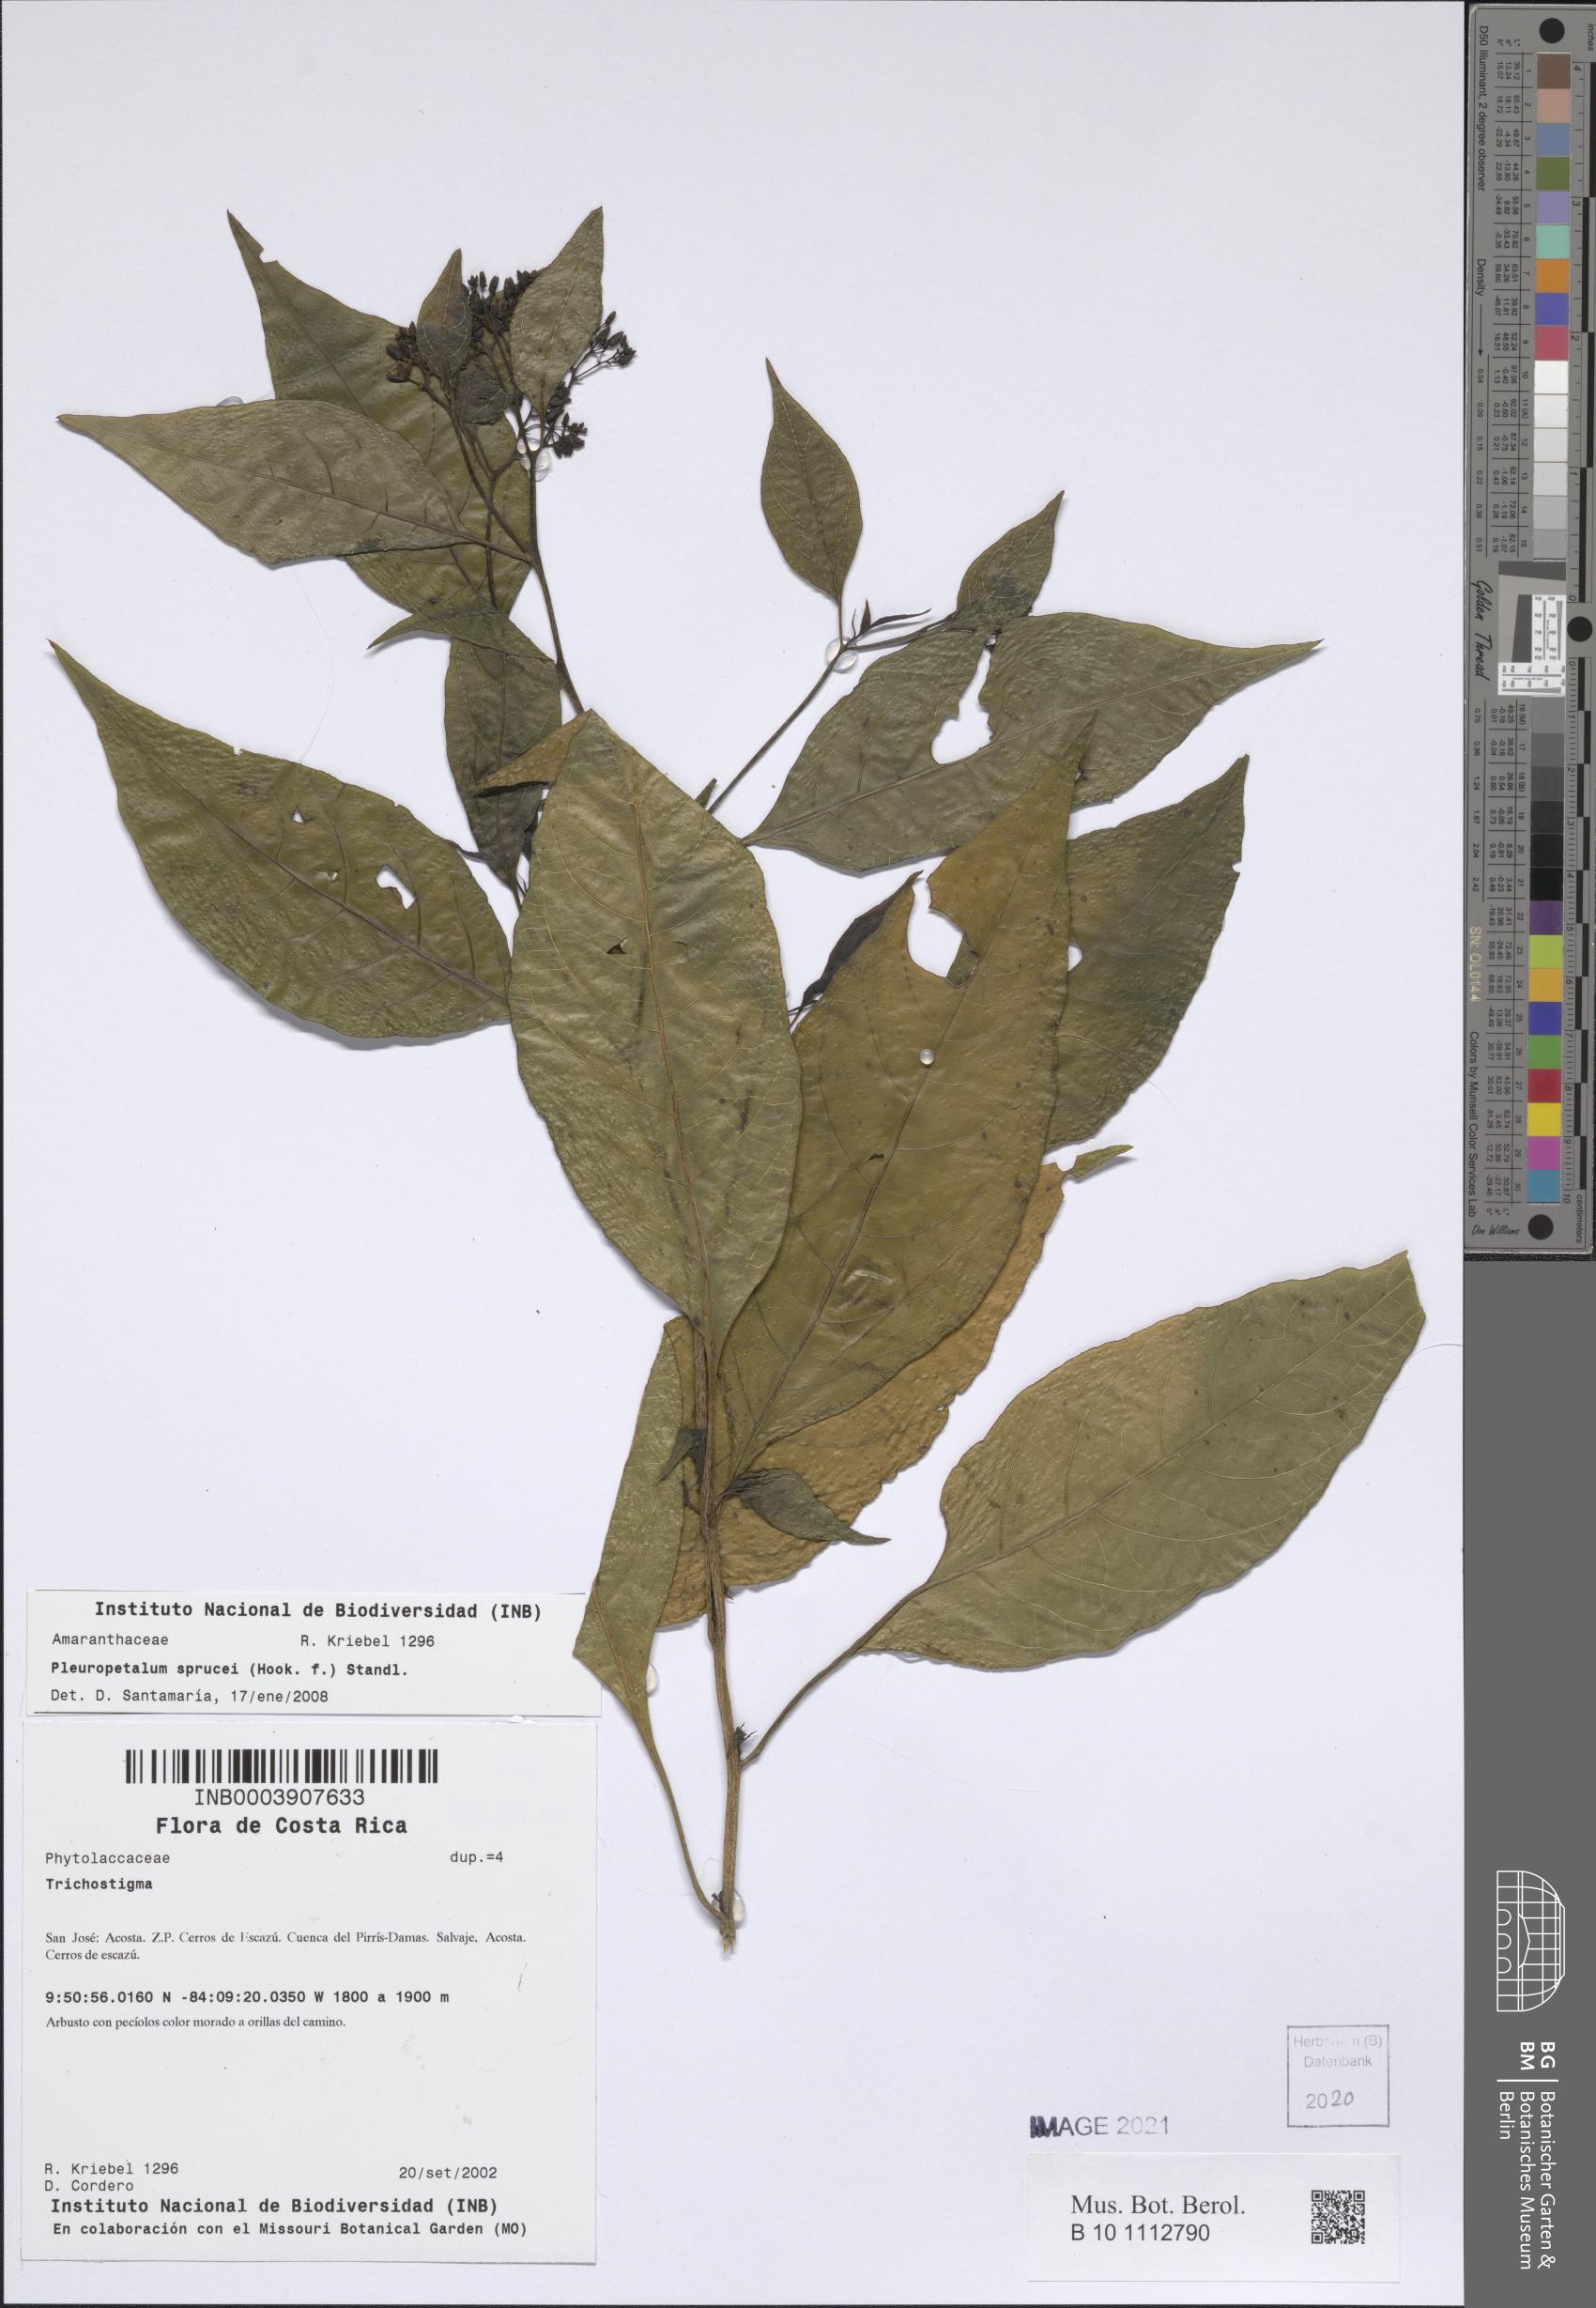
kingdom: Plantae
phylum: Tracheophyta
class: Magnoliopsida
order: Caryophyllales
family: Amaranthaceae
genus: Pleuropetalum
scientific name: Pleuropetalum sprucei
